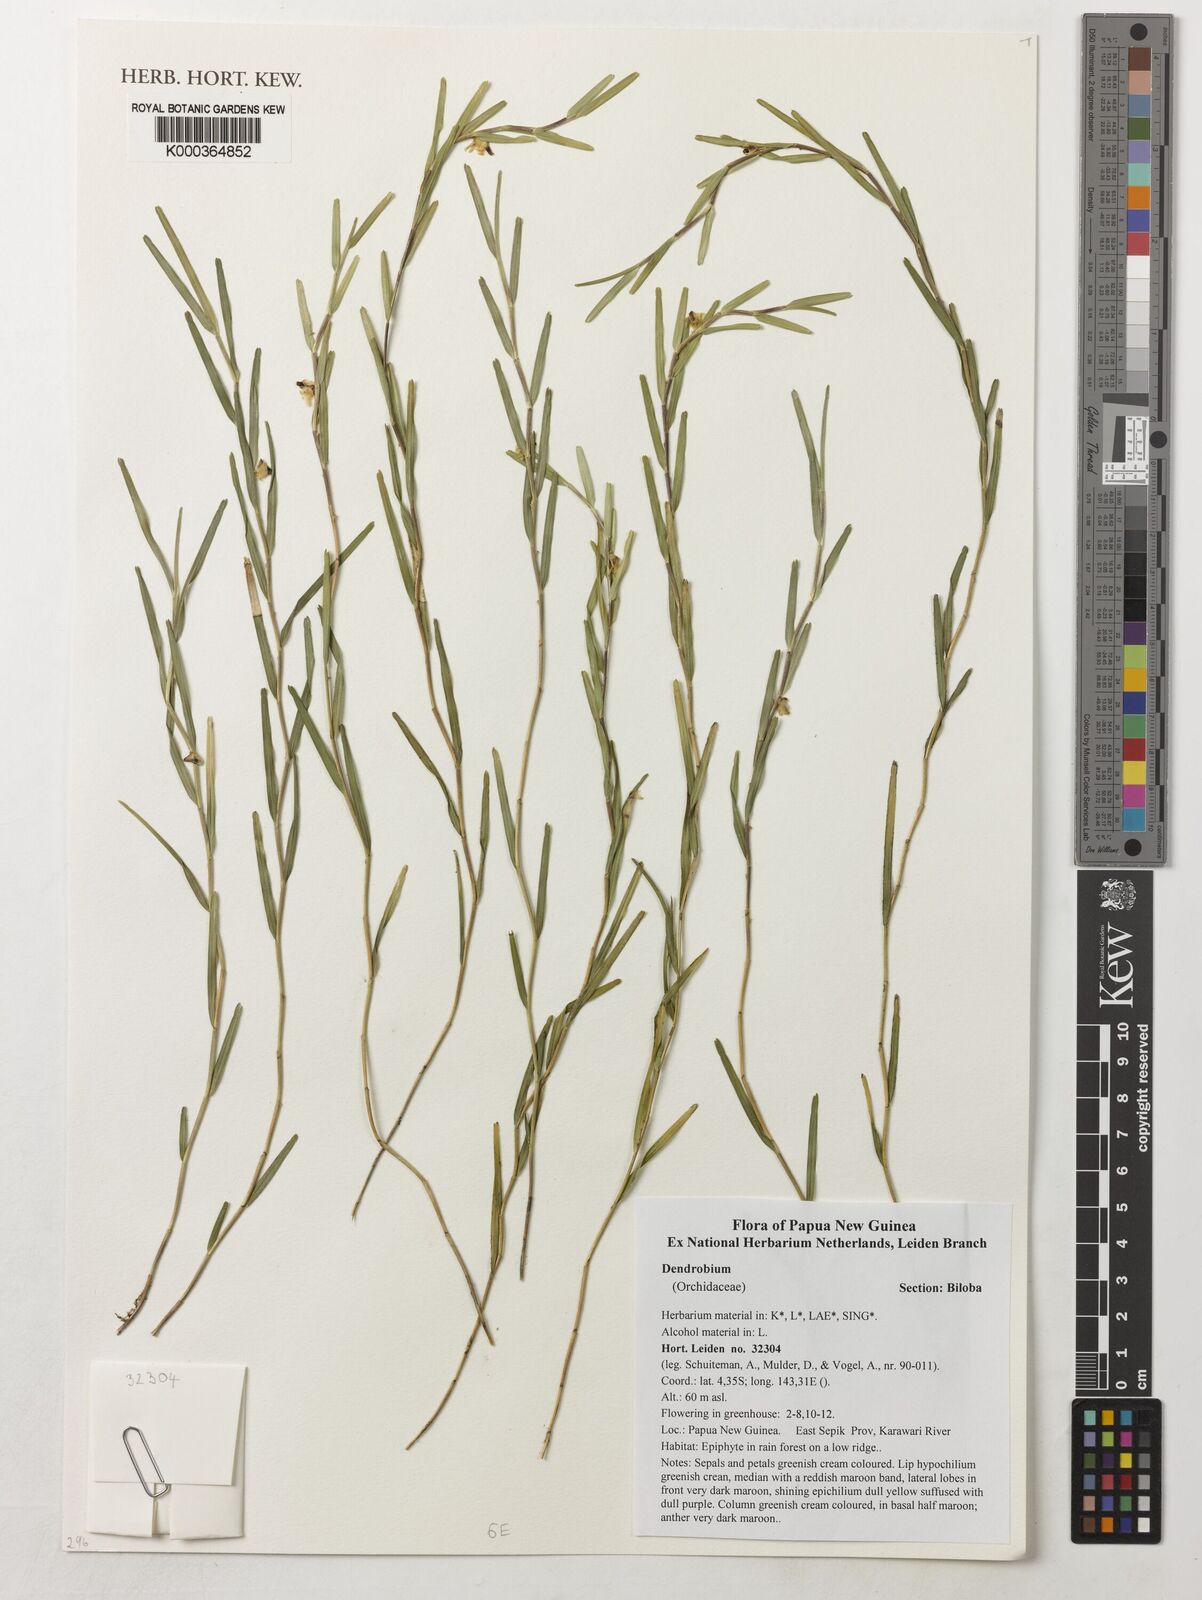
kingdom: Plantae
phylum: Tracheophyta
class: Liliopsida
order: Asparagales
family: Orchidaceae
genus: Dendrobium
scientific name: Dendrobium
